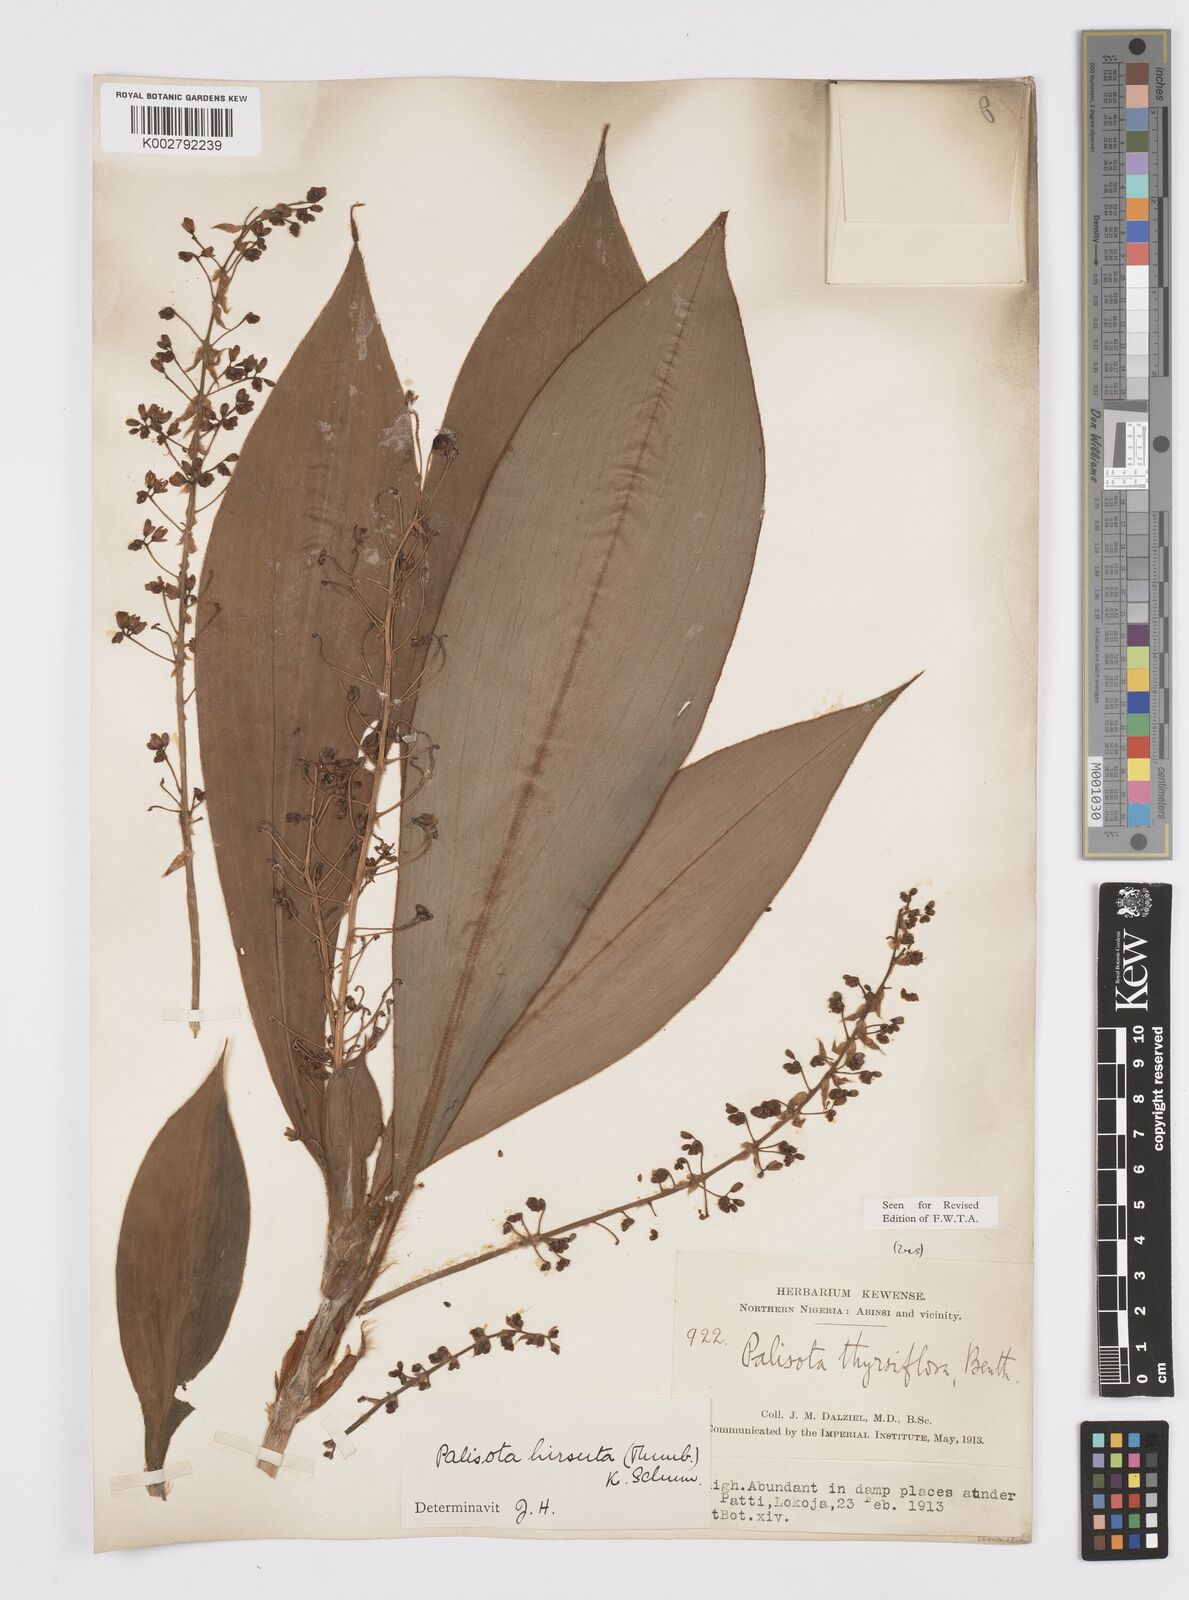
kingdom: Plantae
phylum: Tracheophyta
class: Liliopsida
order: Commelinales
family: Commelinaceae
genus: Palisota
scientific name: Palisota hirsuta
